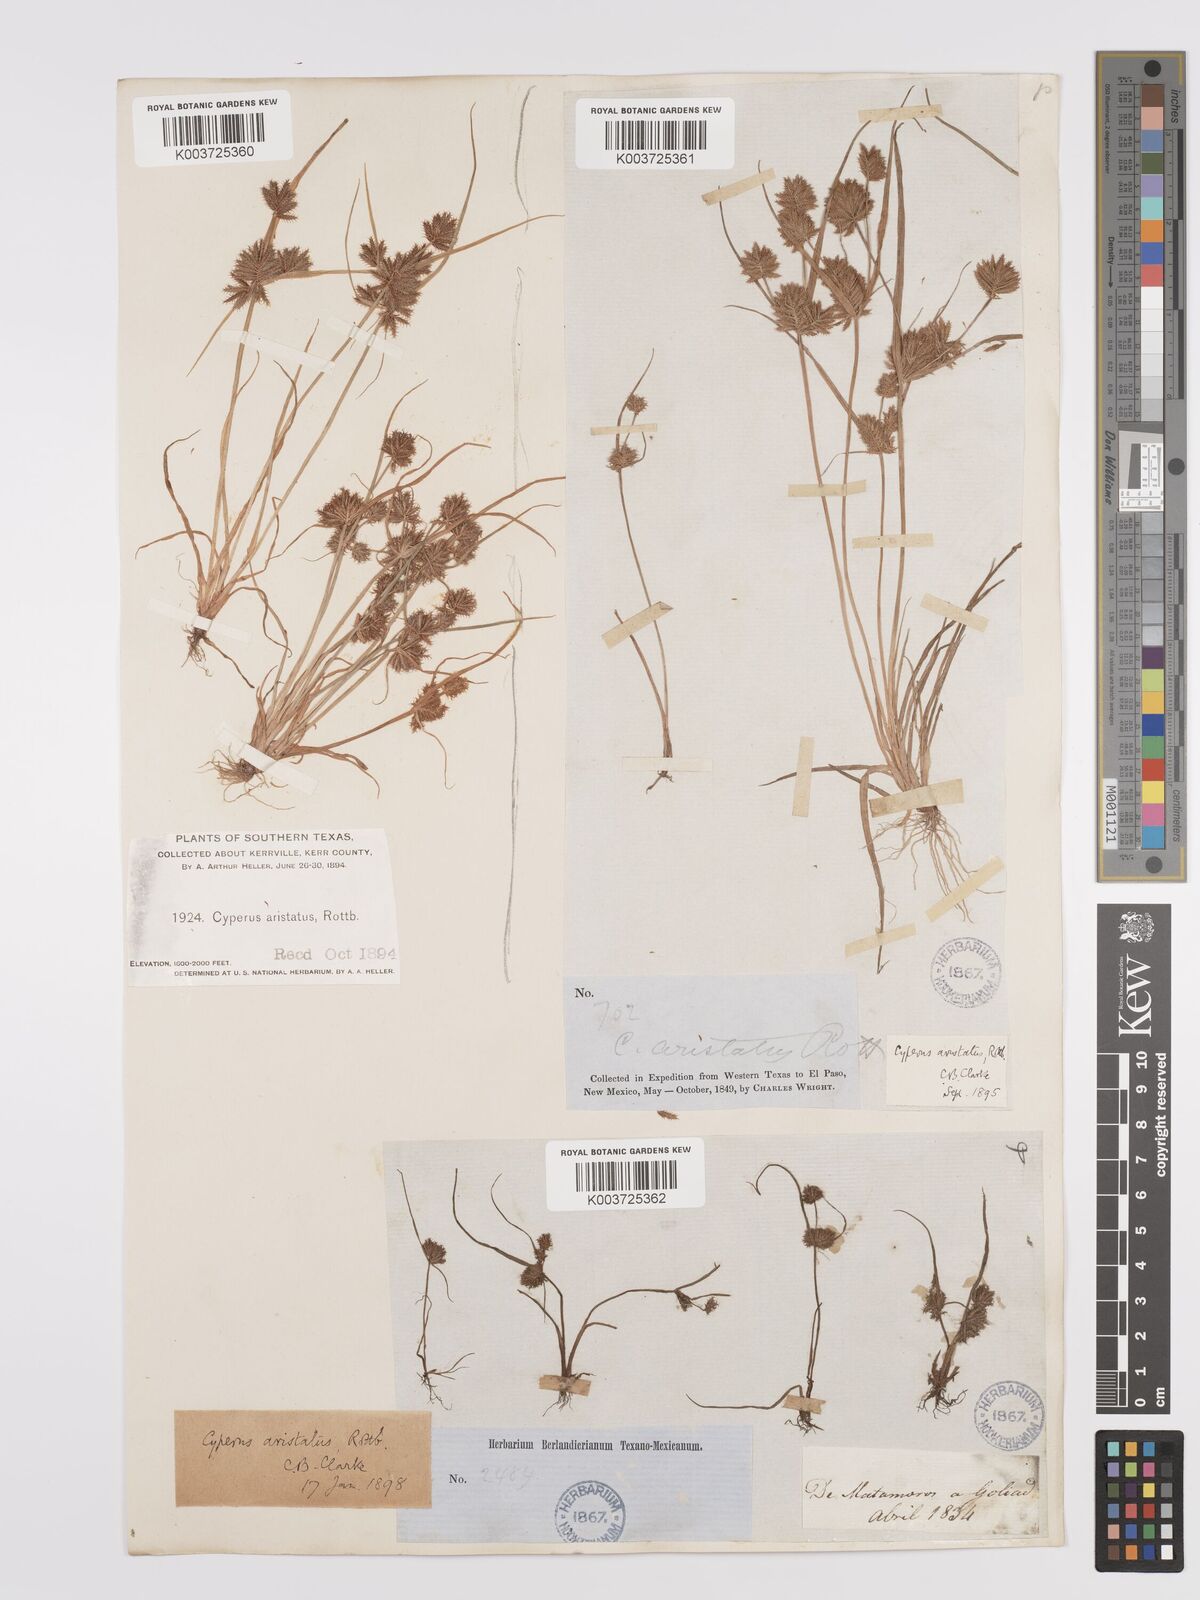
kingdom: Plantae
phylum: Tracheophyta
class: Liliopsida
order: Poales
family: Cyperaceae
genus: Cyperus
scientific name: Cyperus squarrosus
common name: Awned cyperus
